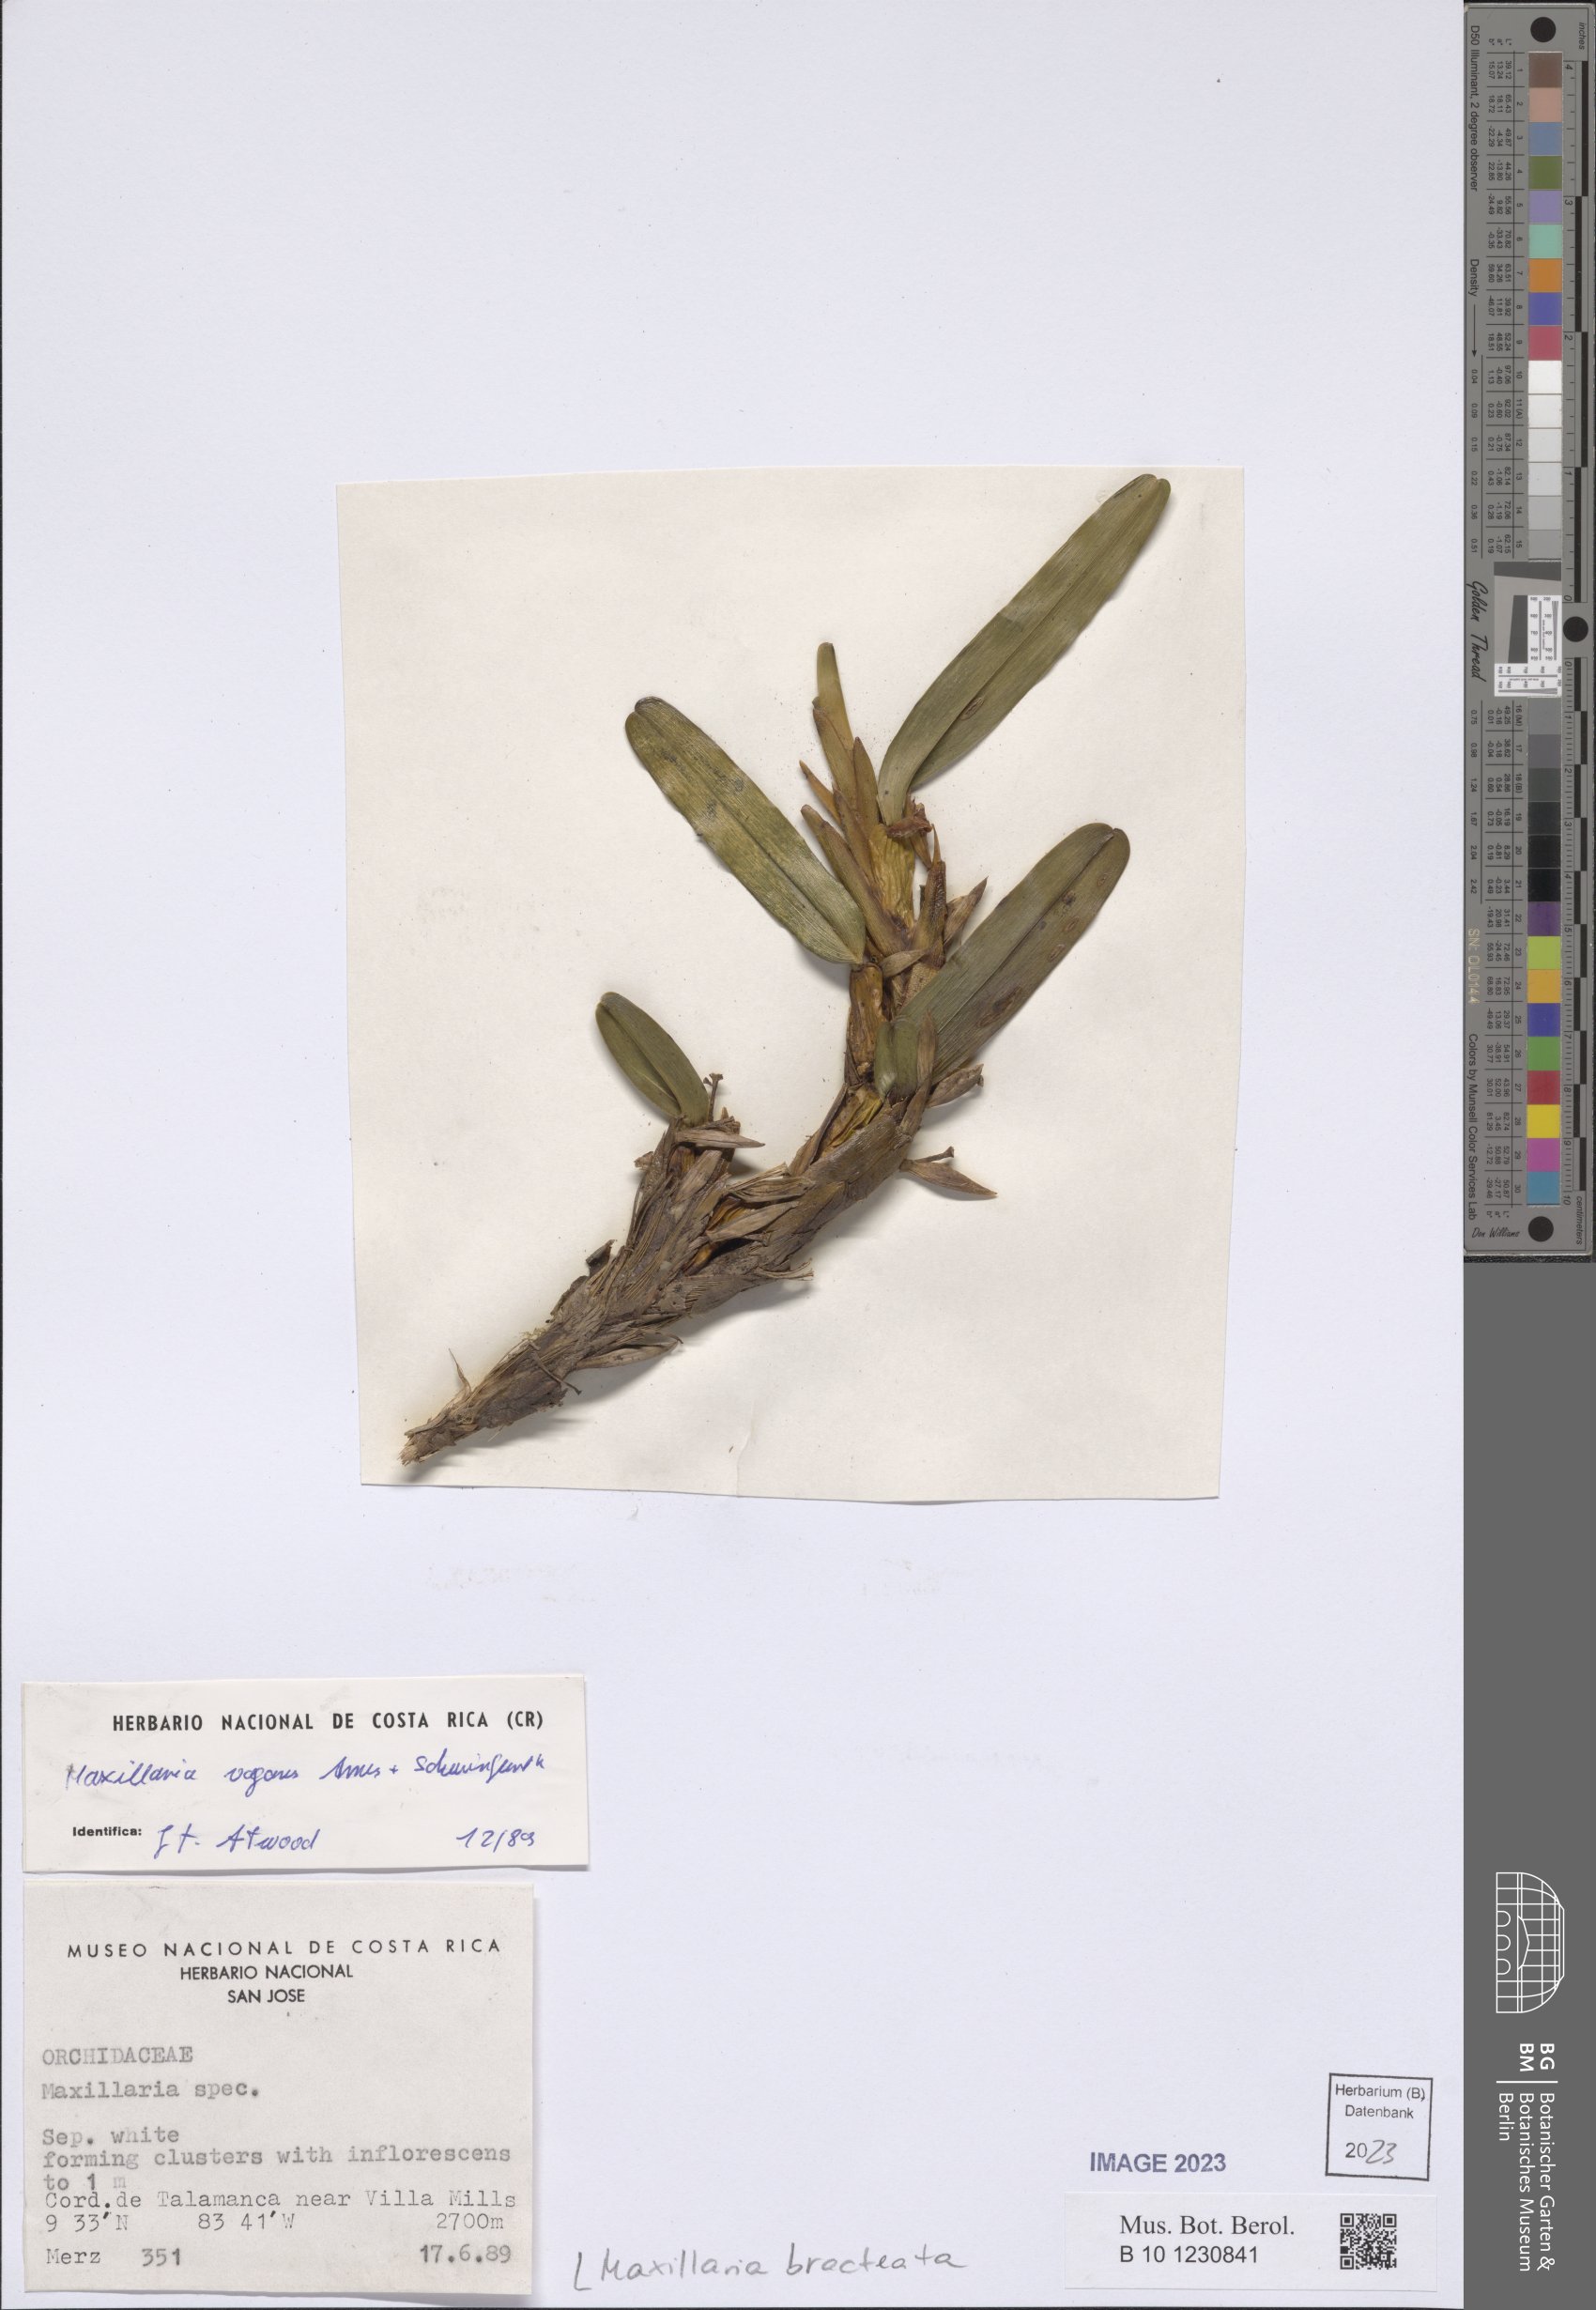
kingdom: Plantae
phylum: Tracheophyta
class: Liliopsida
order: Asparagales
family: Orchidaceae
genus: Maxillaria
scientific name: Maxillaria bracteata
